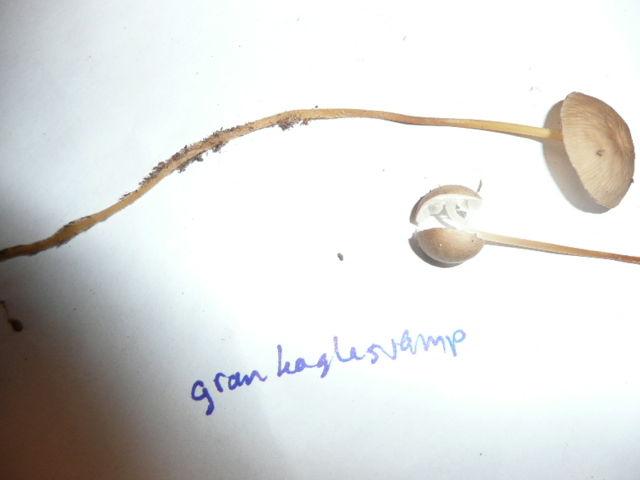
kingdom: Fungi
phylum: Basidiomycota
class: Agaricomycetes
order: Agaricales
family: Physalacriaceae
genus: Strobilurus
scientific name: Strobilurus esculentus
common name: gran-koglehat
